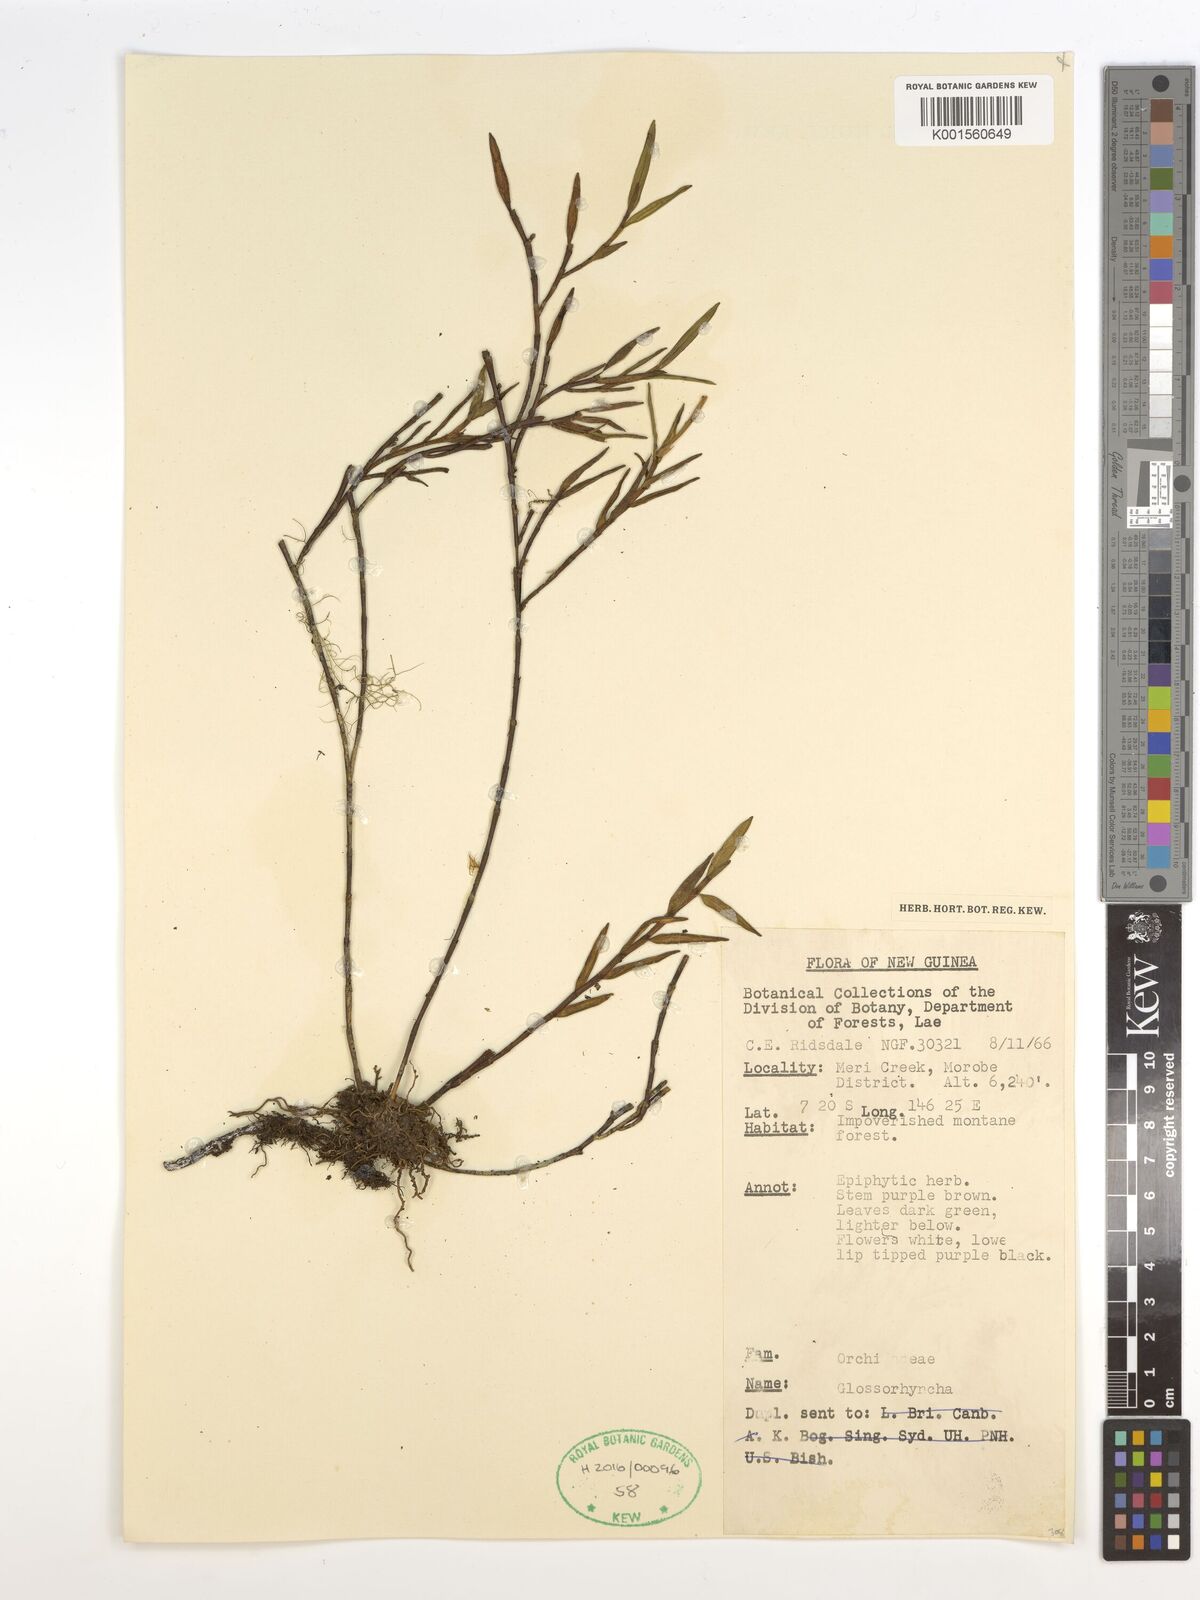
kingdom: Plantae
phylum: Tracheophyta
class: Liliopsida
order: Asparagales
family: Orchidaceae
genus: Glomera
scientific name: Glomera
